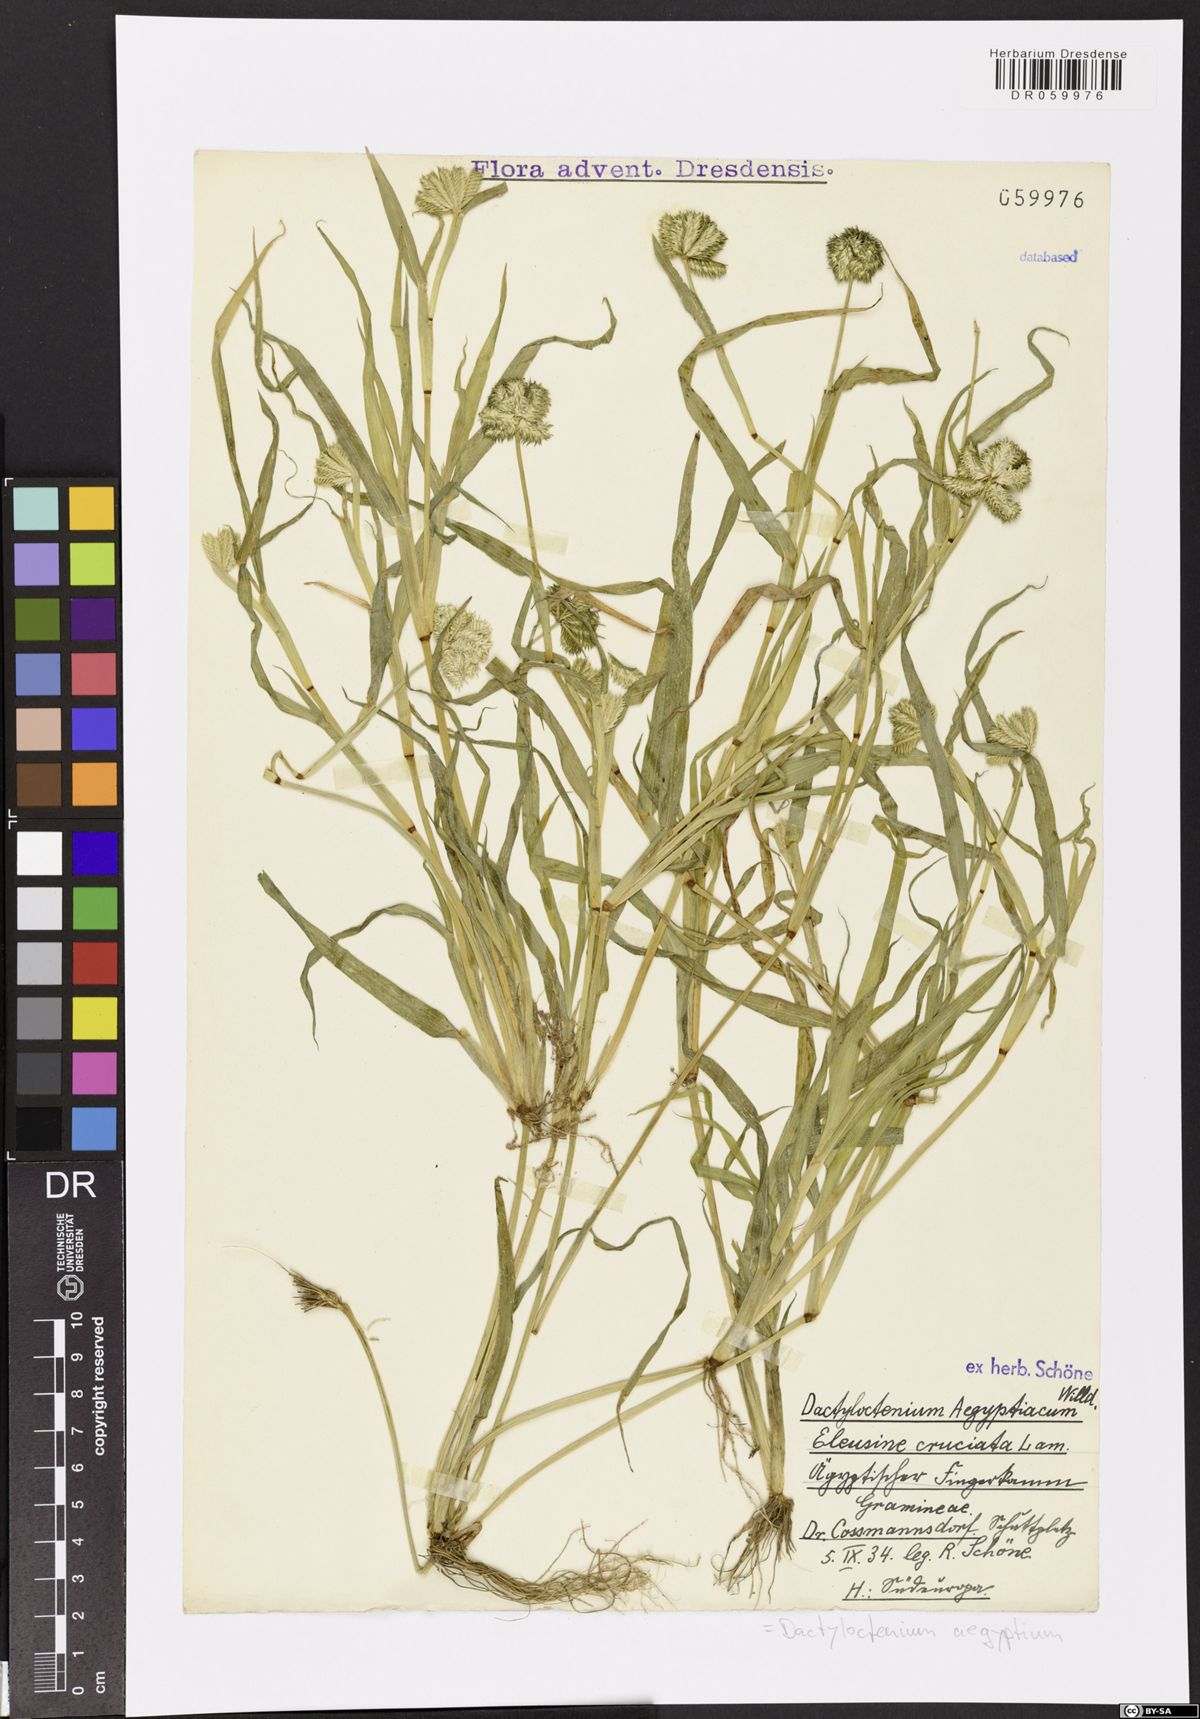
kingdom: Plantae
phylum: Tracheophyta
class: Liliopsida
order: Poales
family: Poaceae
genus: Dactyloctenium
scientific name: Dactyloctenium aegyptium
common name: Egyptian grass
